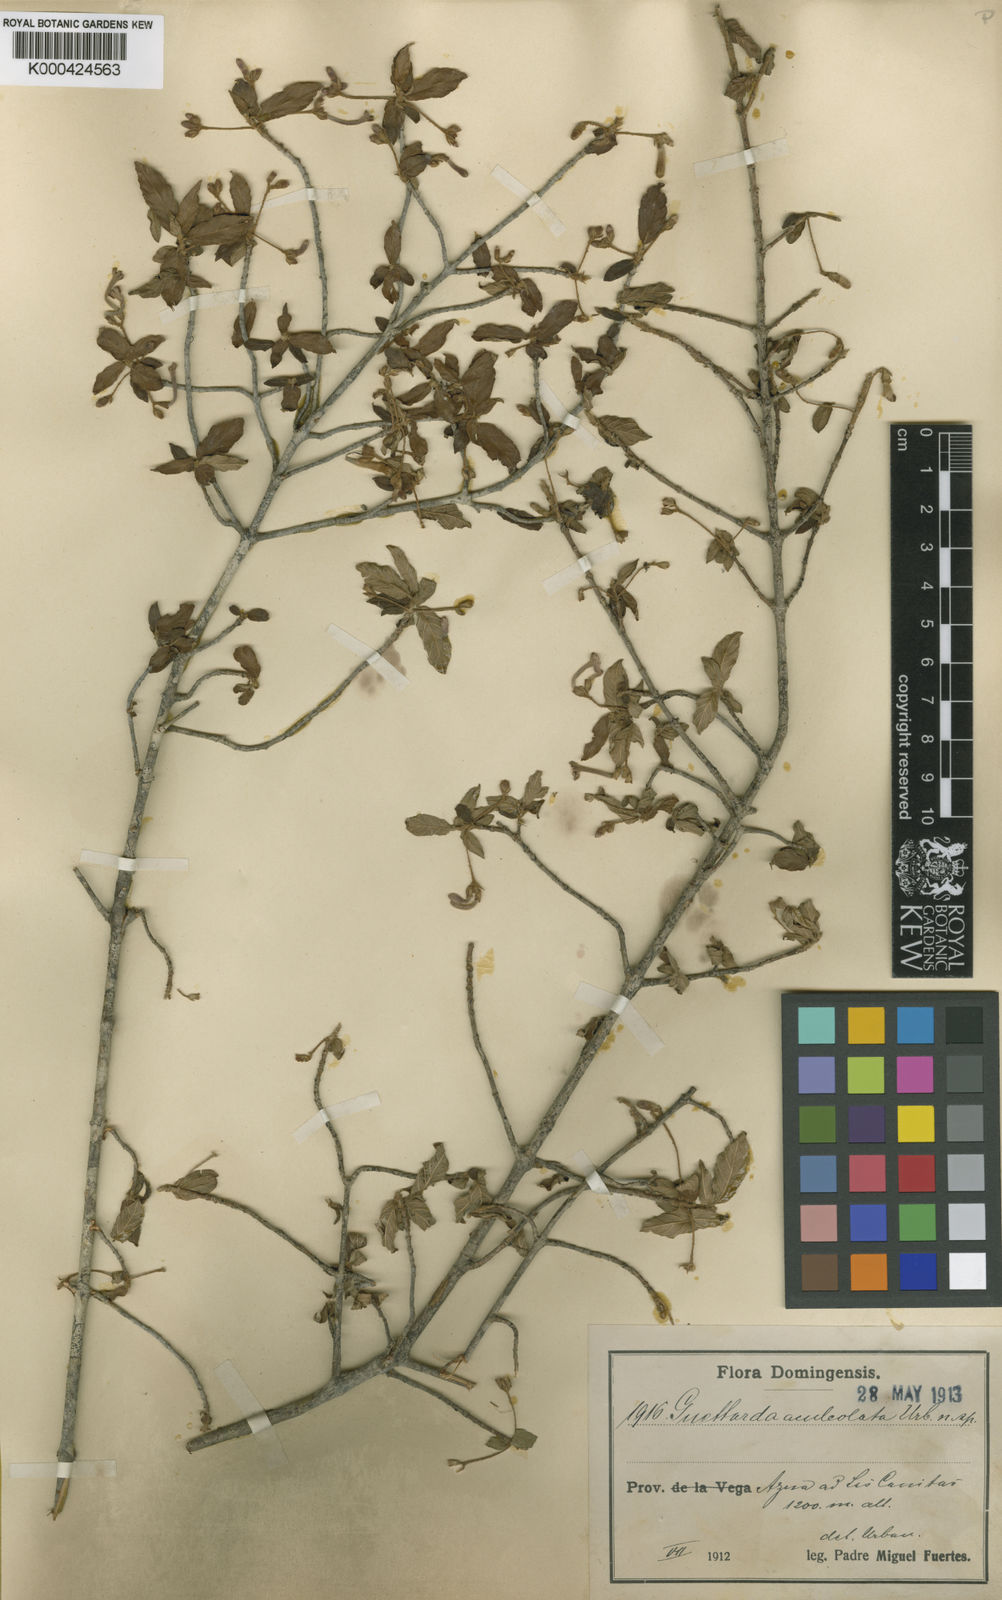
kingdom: Plantae
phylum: Tracheophyta
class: Magnoliopsida
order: Gentianales
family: Rubiaceae
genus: Guettarda
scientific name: Guettarda aculeolata
